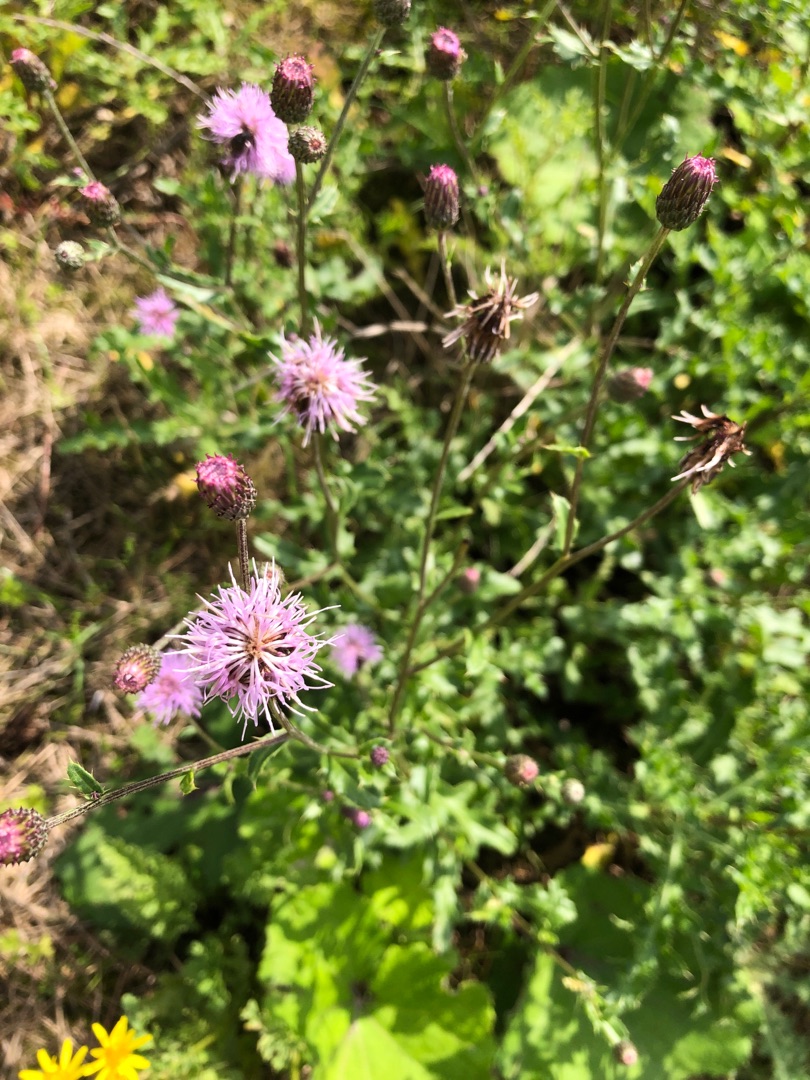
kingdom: Plantae
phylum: Tracheophyta
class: Magnoliopsida
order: Asterales
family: Asteraceae
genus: Cirsium
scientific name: Cirsium arvense
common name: Ager-tidsel
